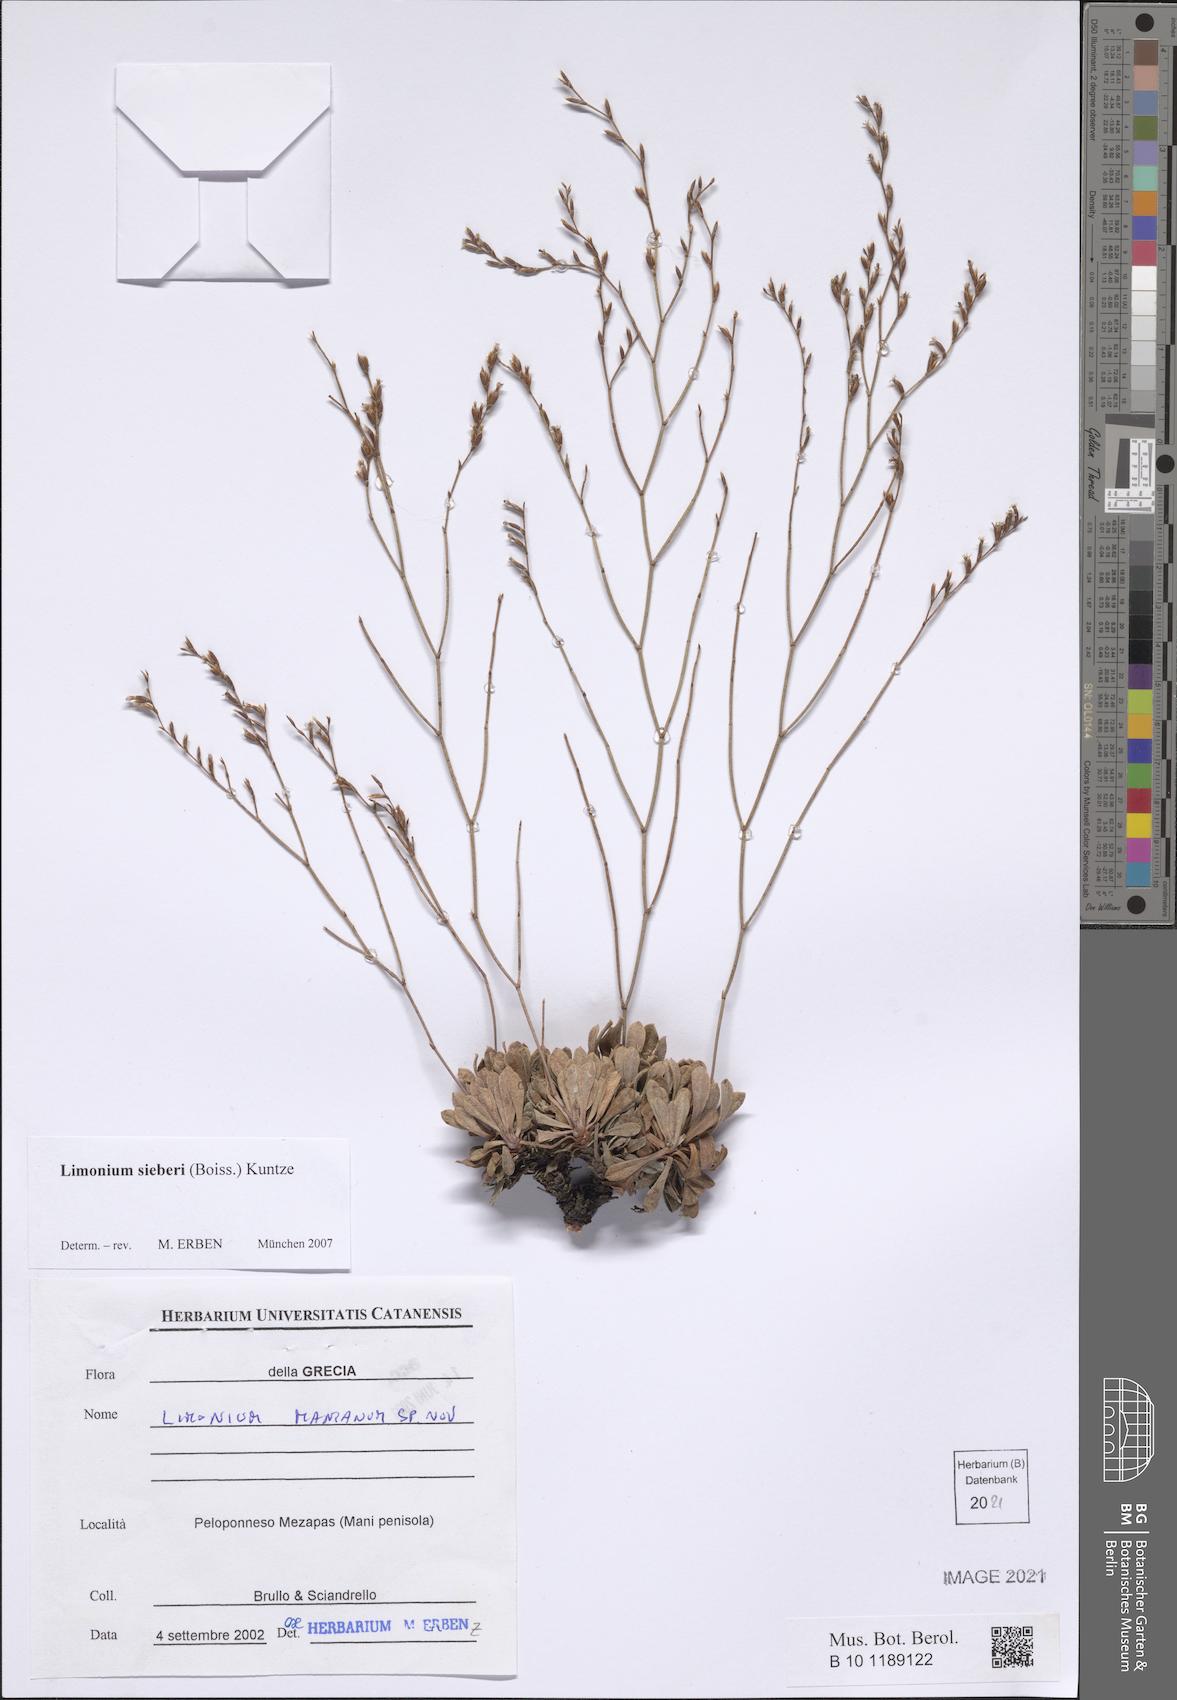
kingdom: Plantae
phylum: Tracheophyta
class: Magnoliopsida
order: Caryophyllales
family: Plumbaginaceae
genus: Limonium
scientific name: Limonium sieberi
